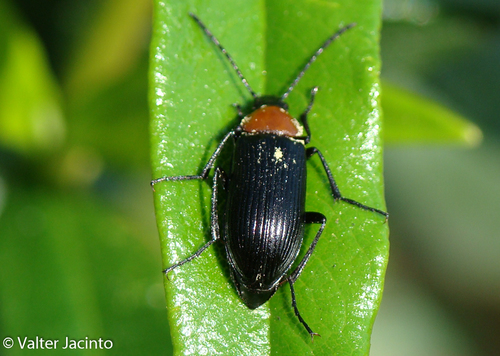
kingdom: Animalia
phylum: Arthropoda
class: Insecta
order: Coleoptera
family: Tenebrionidae
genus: Heliotaurus
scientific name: Heliotaurus ruficollis
